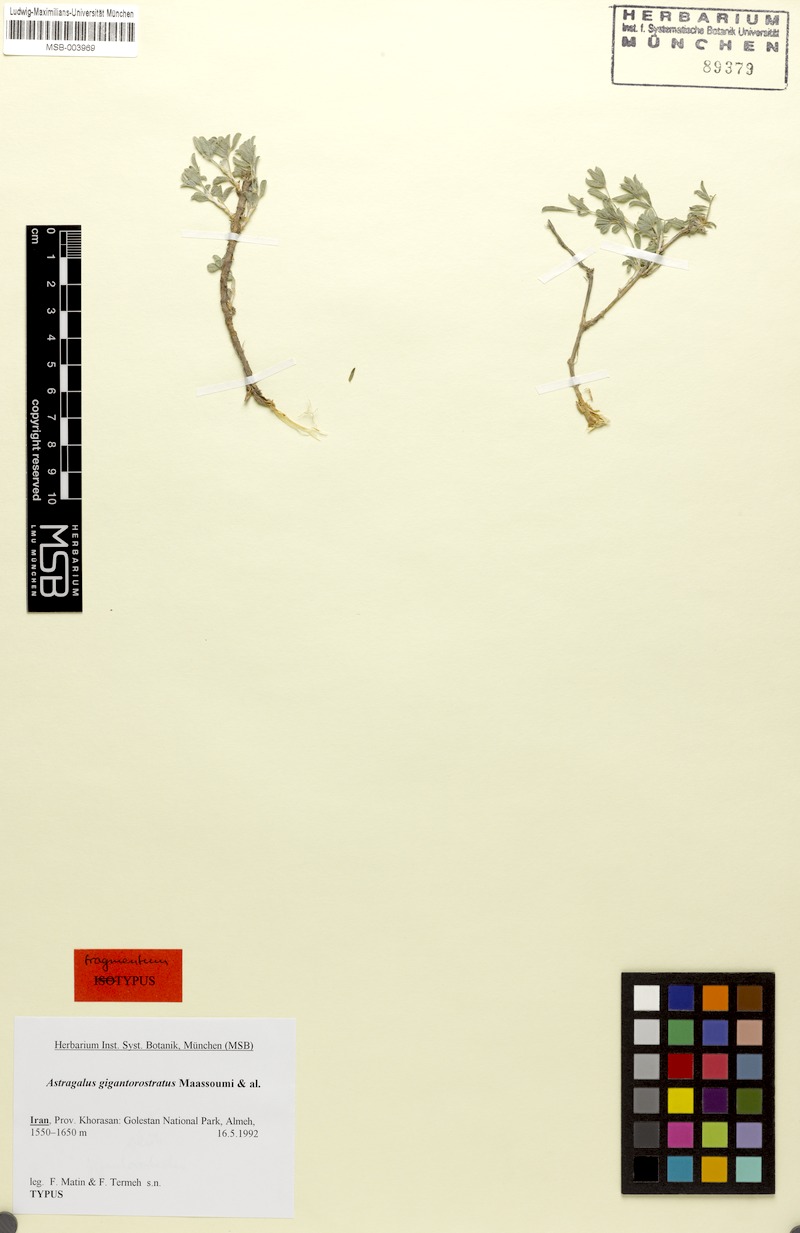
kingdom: Plantae
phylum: Tracheophyta
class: Magnoliopsida
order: Fabales
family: Fabaceae
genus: Astragalus
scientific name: Astragalus gigantirostratus
